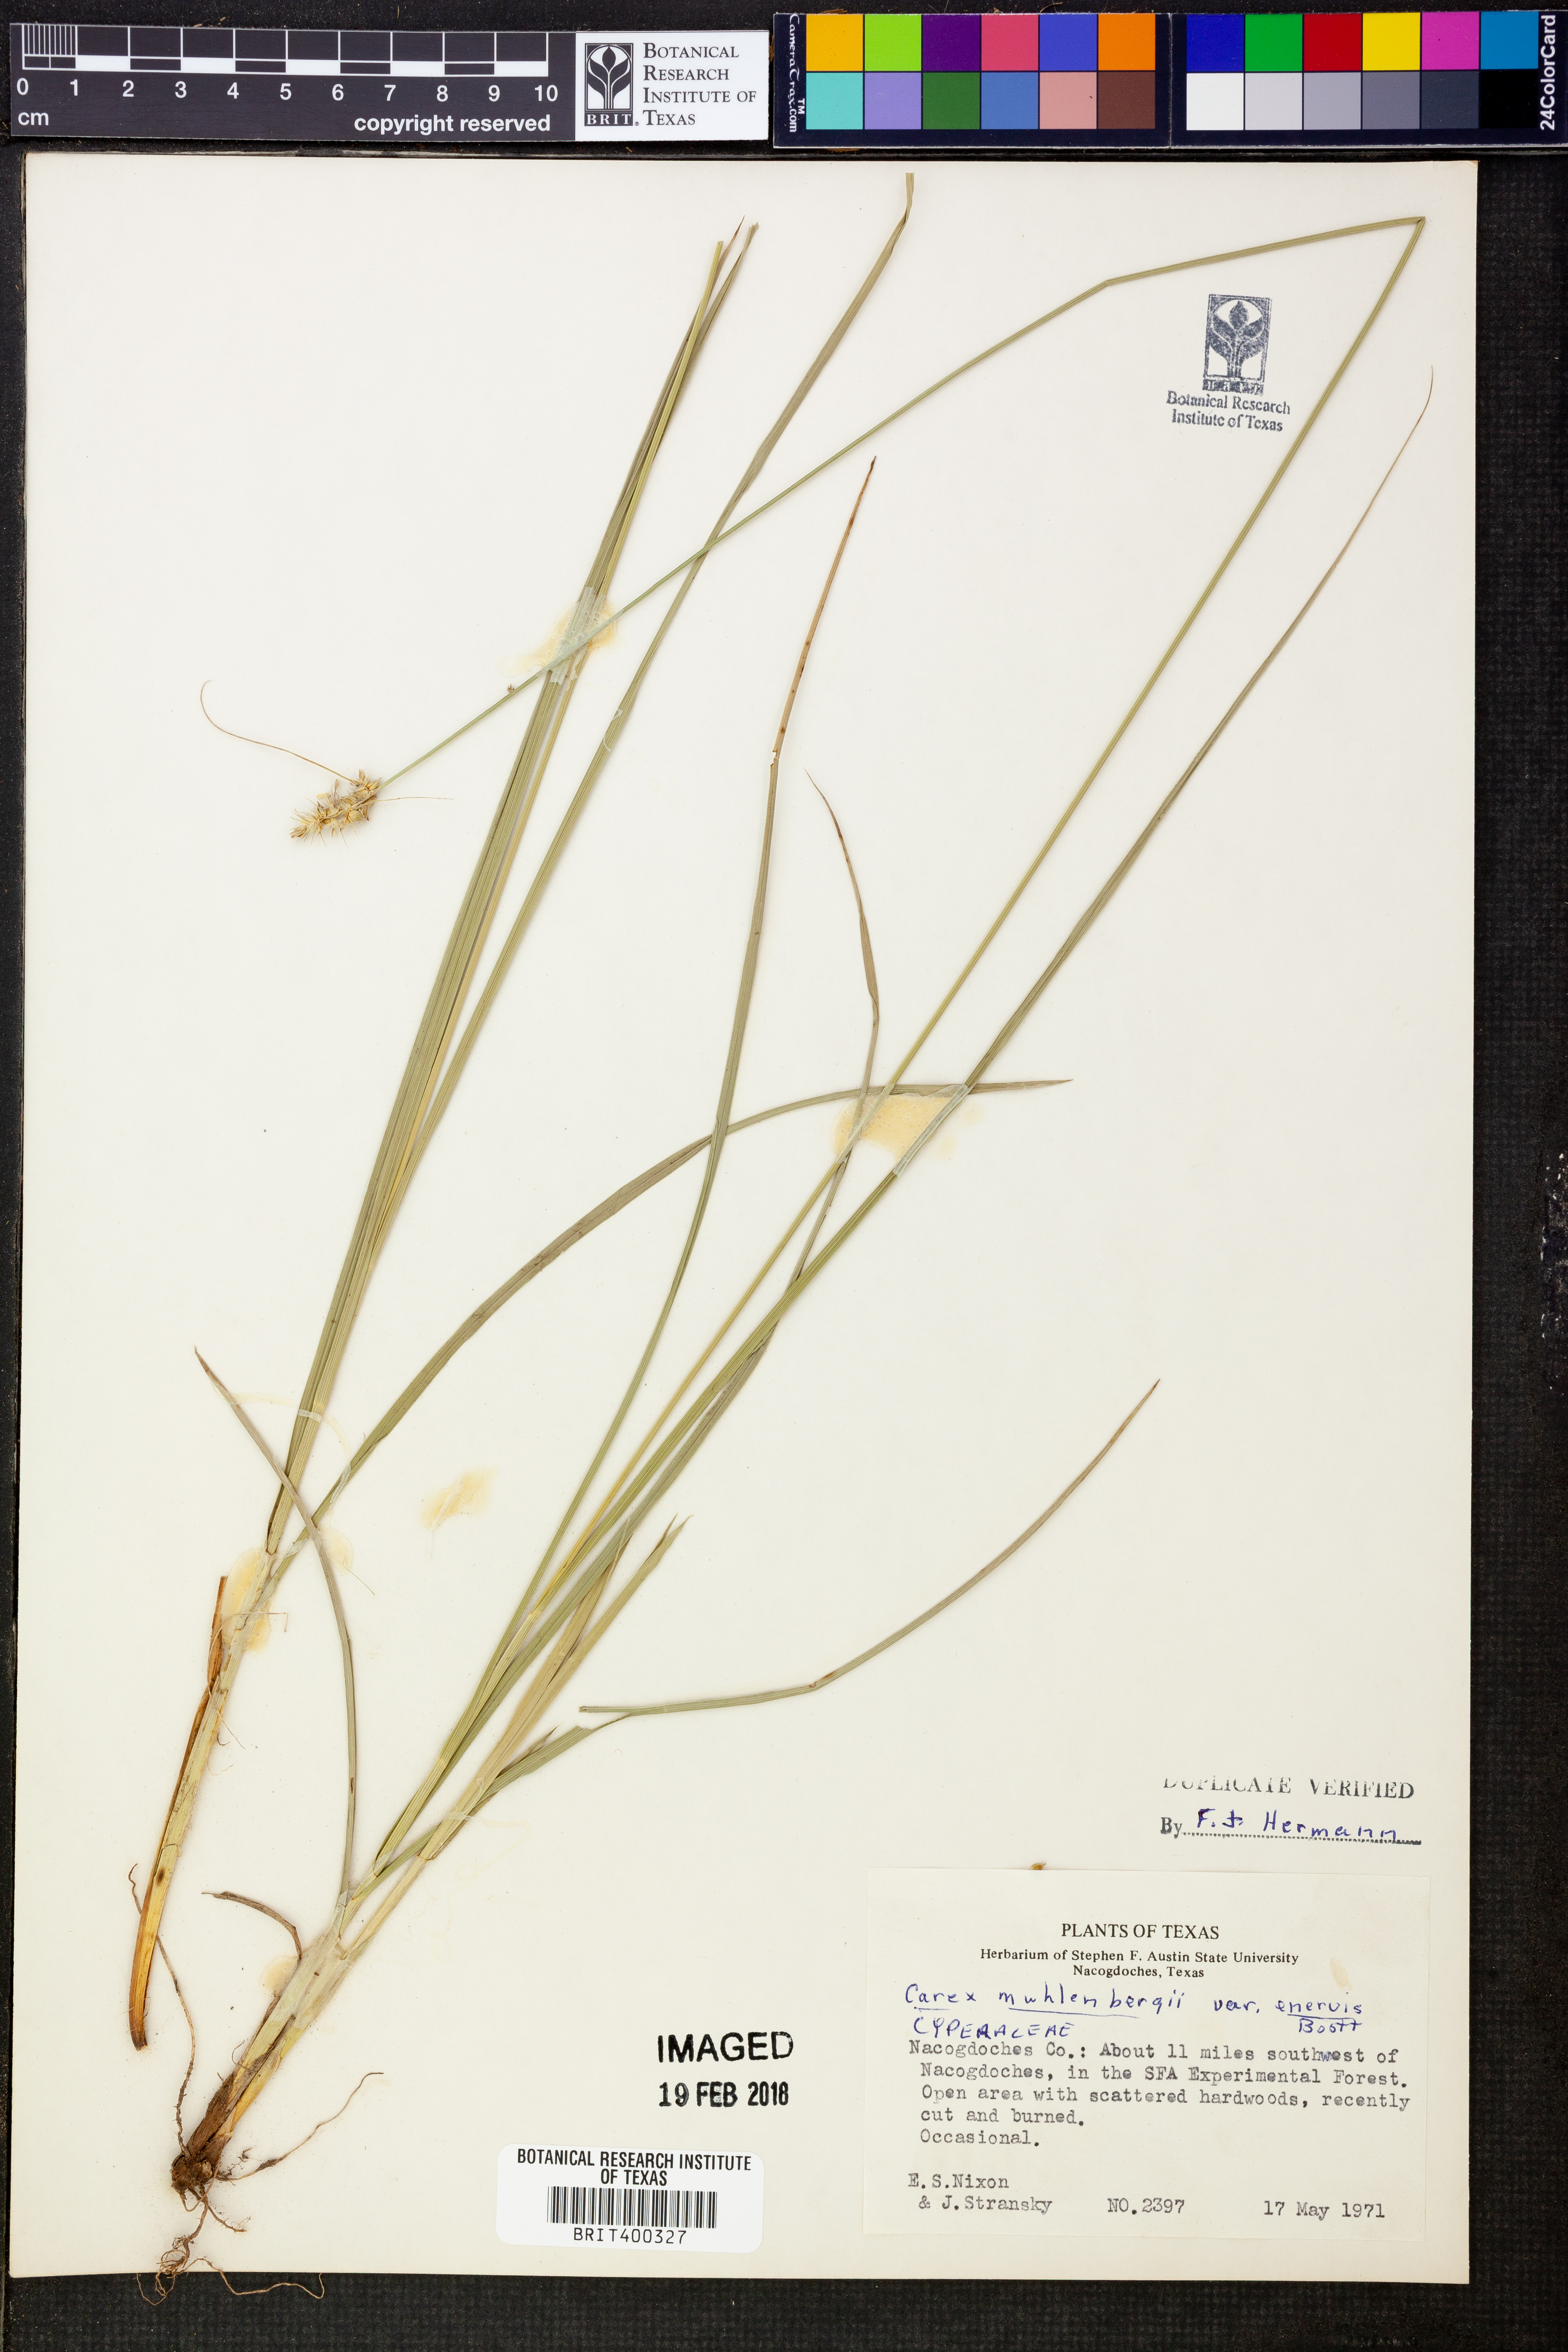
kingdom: Plantae
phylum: Tracheophyta
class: Liliopsida
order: Poales
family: Cyperaceae
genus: Carex
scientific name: Carex vulpinoidea
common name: American fox-sedge
